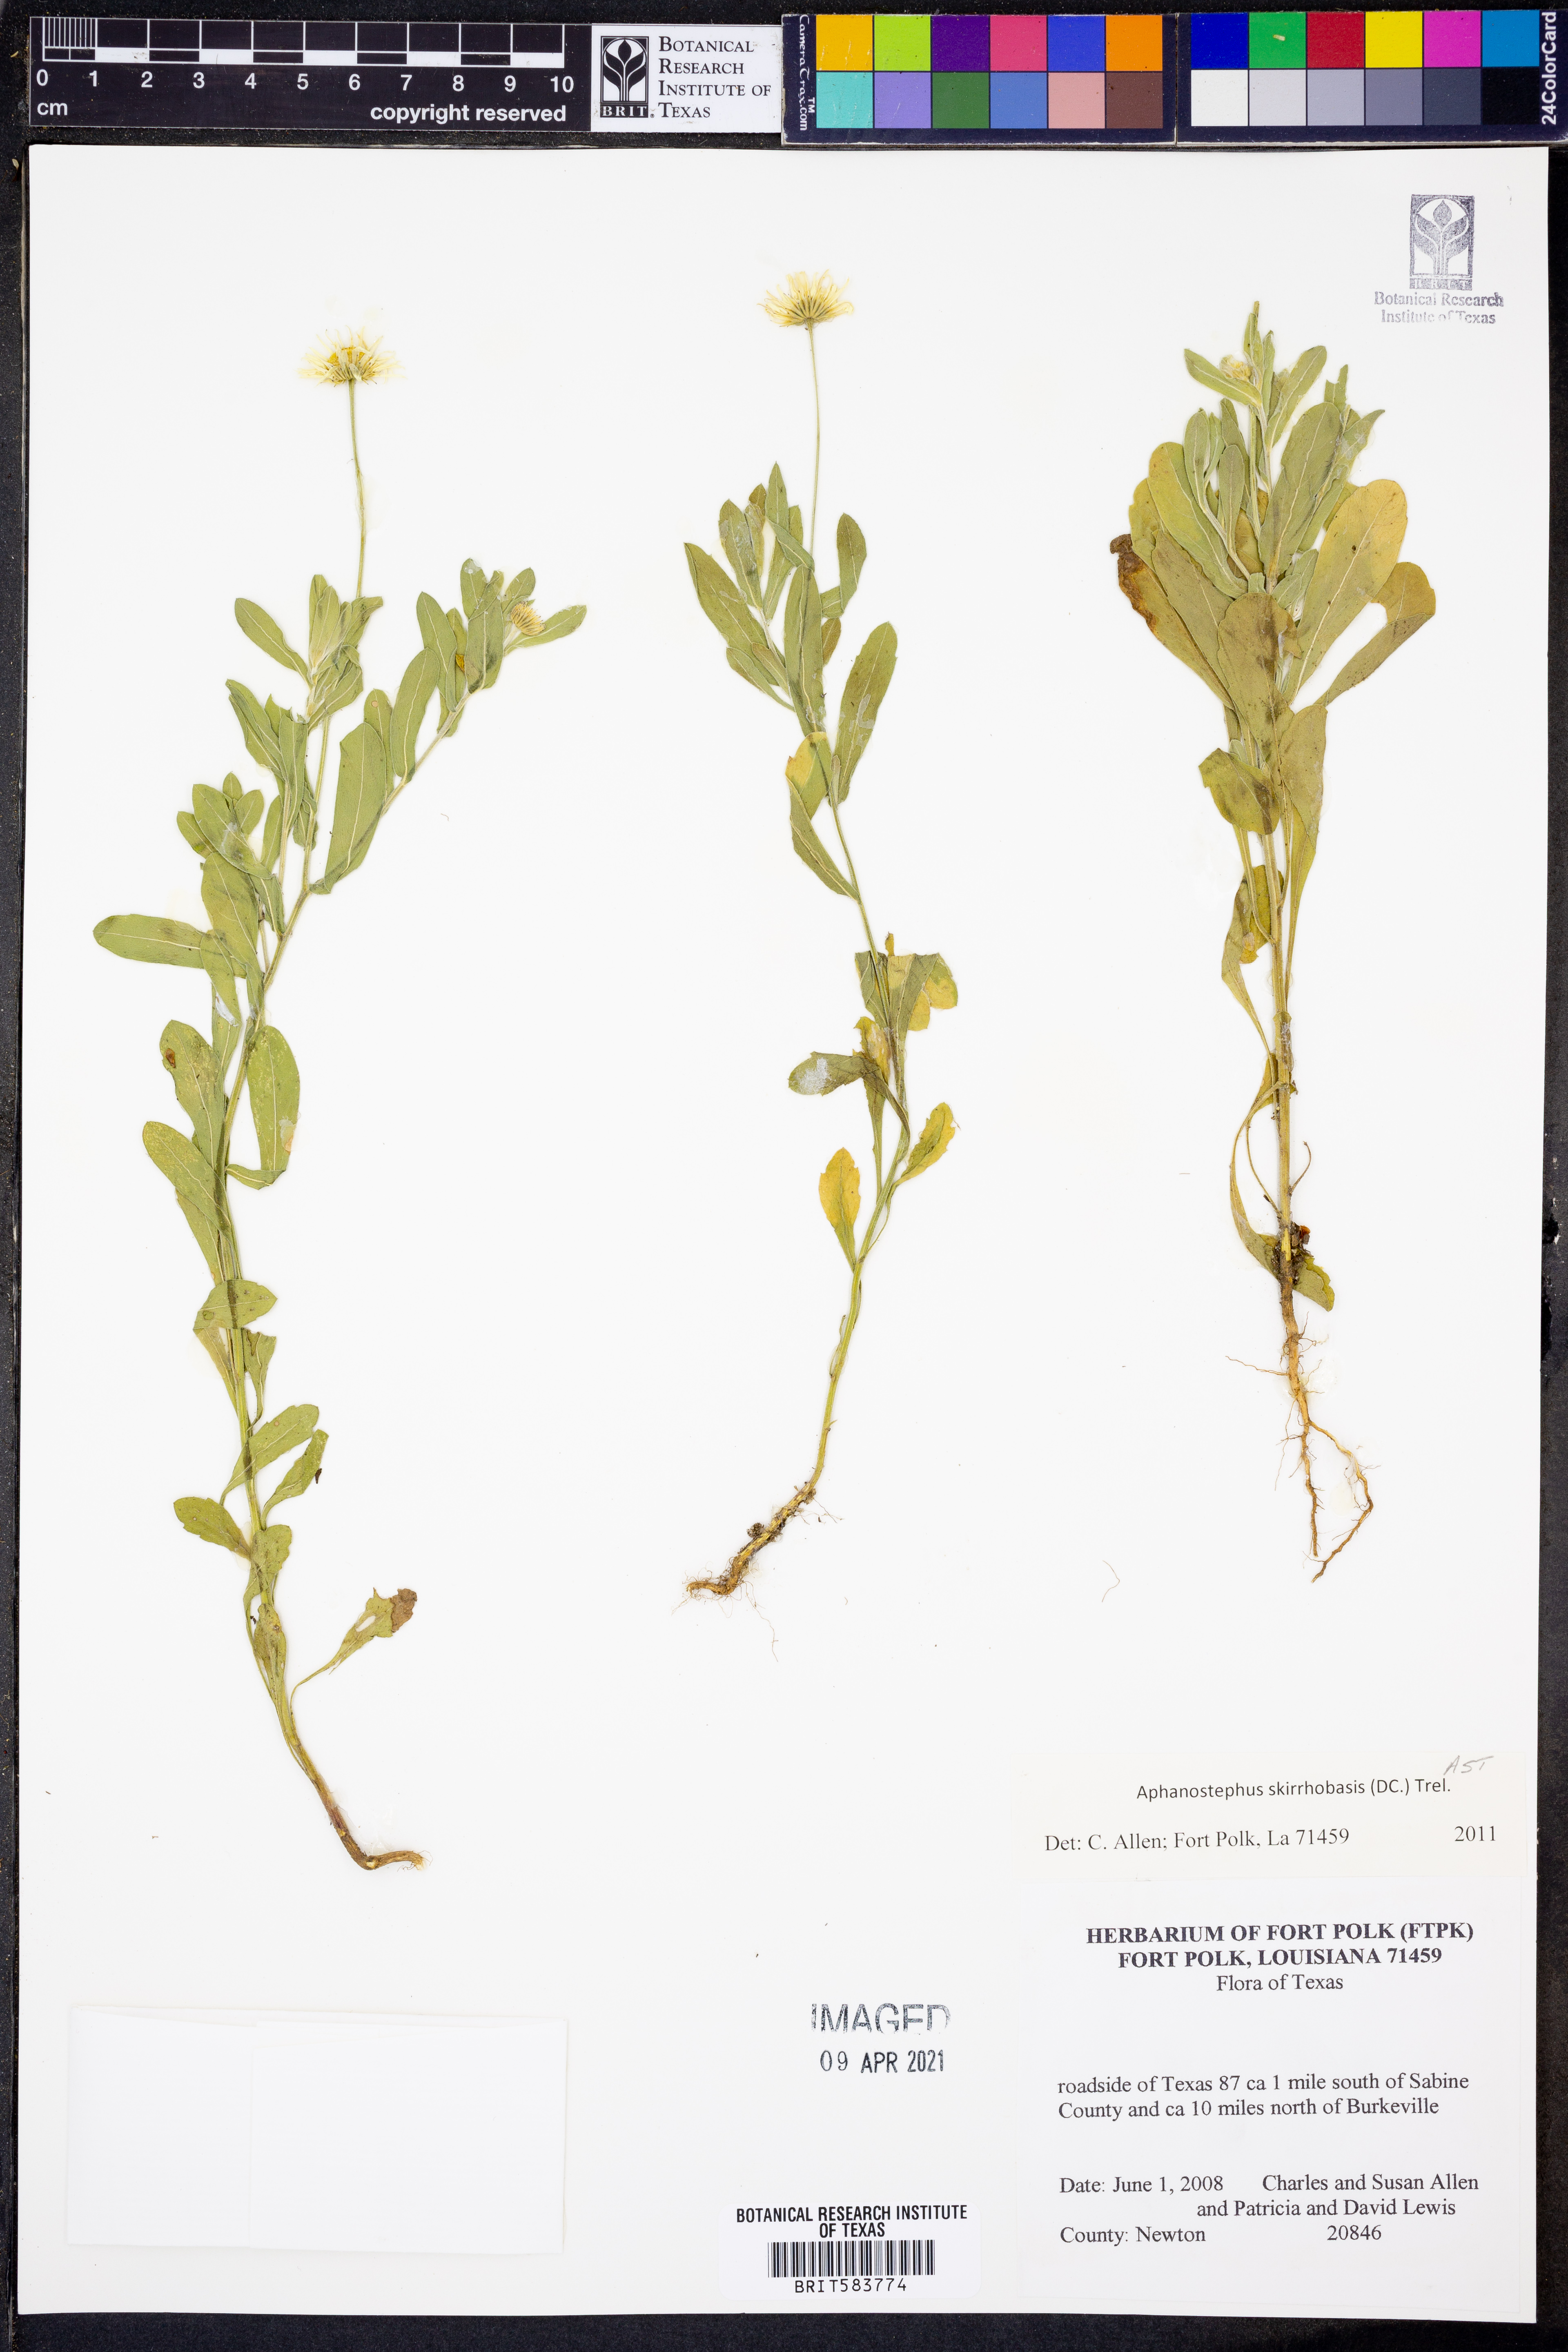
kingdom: Plantae
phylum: Tracheophyta
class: Magnoliopsida
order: Asterales
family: Asteraceae
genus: Aphanostephus
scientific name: Aphanostephus skirrhobasis
